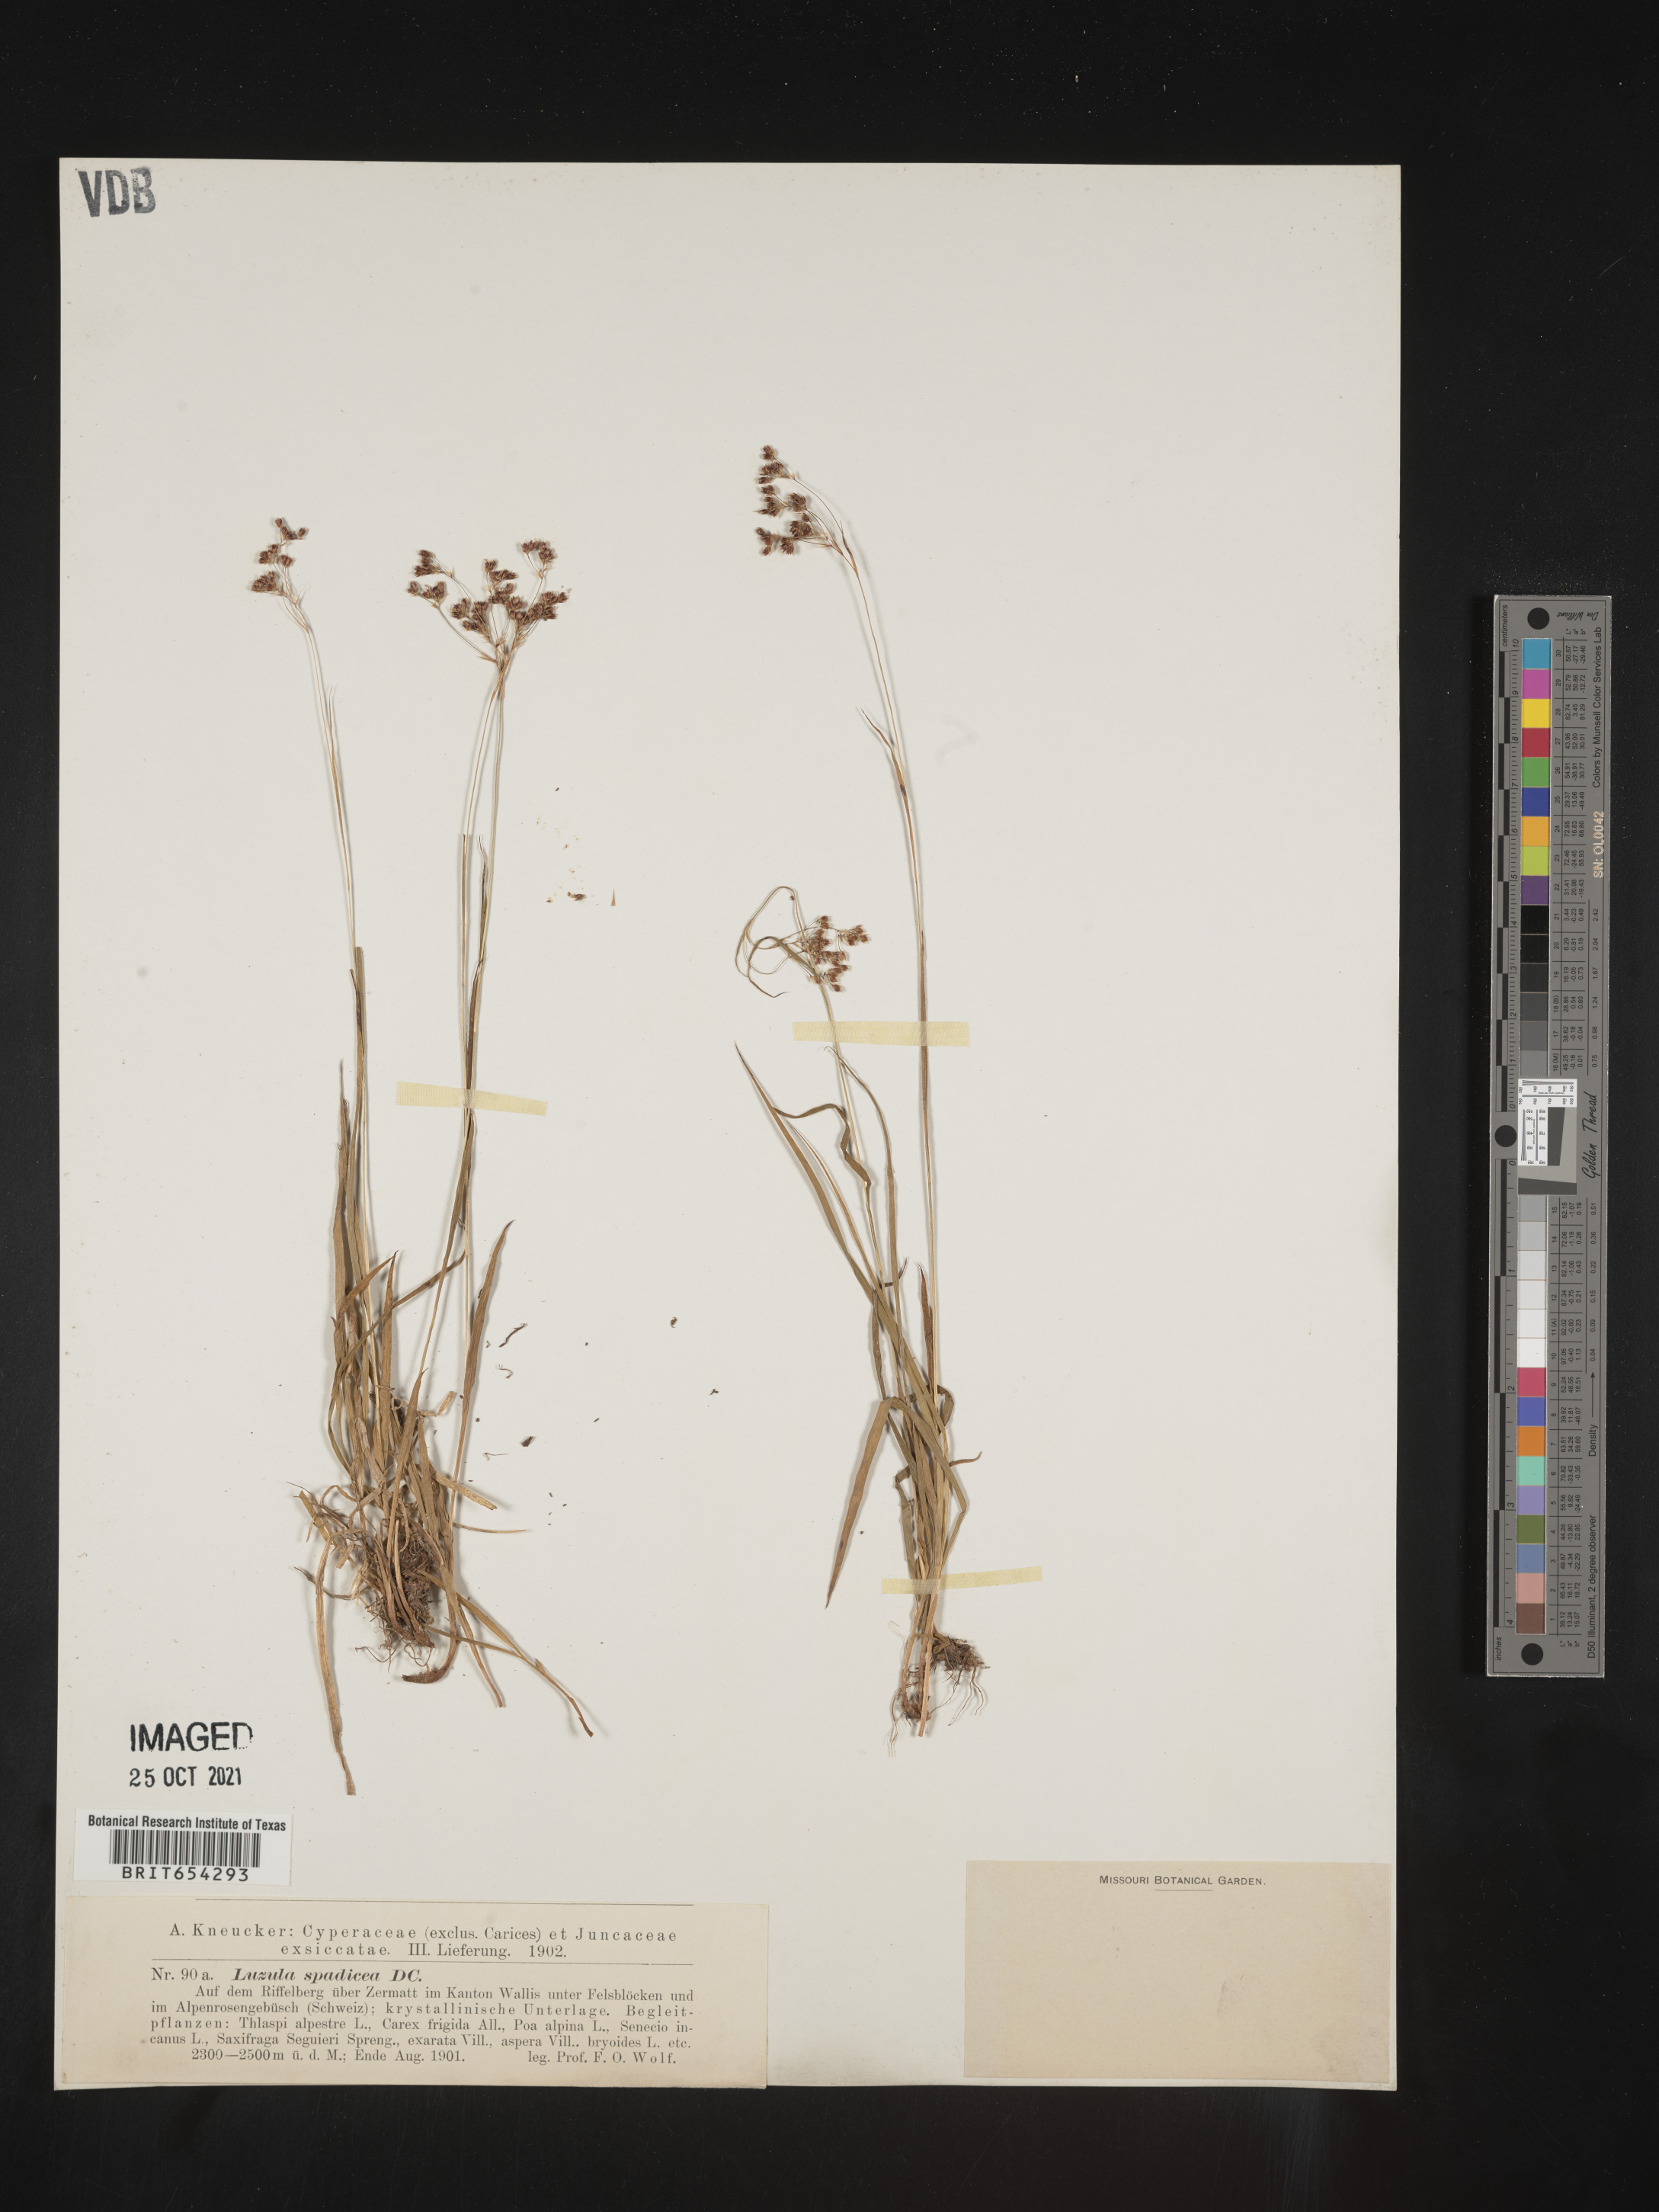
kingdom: Plantae
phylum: Tracheophyta
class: Liliopsida
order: Poales
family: Juncaceae
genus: Luzula
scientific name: Luzula
